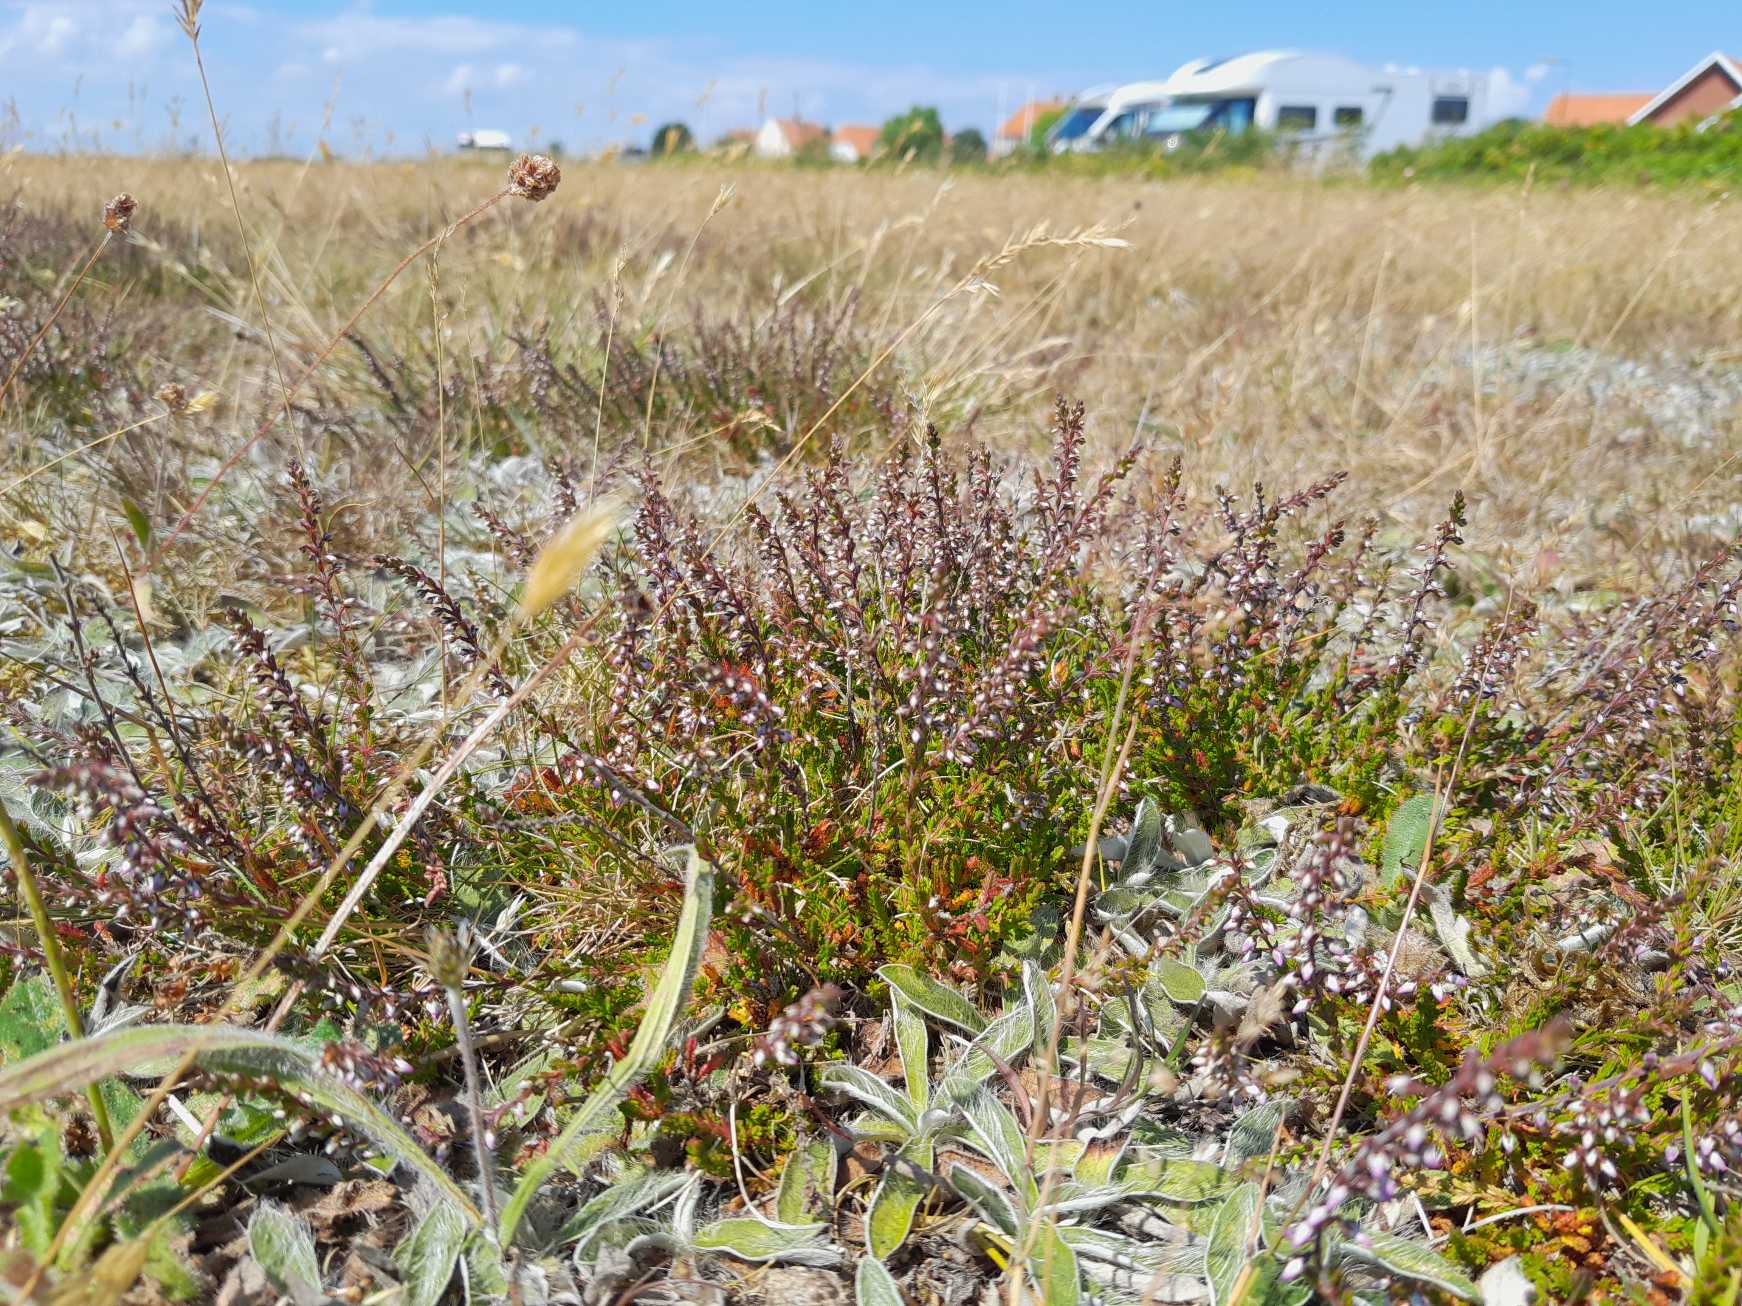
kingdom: Plantae
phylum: Tracheophyta
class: Magnoliopsida
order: Ericales
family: Ericaceae
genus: Calluna
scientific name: Calluna vulgaris
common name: Hedelyng
